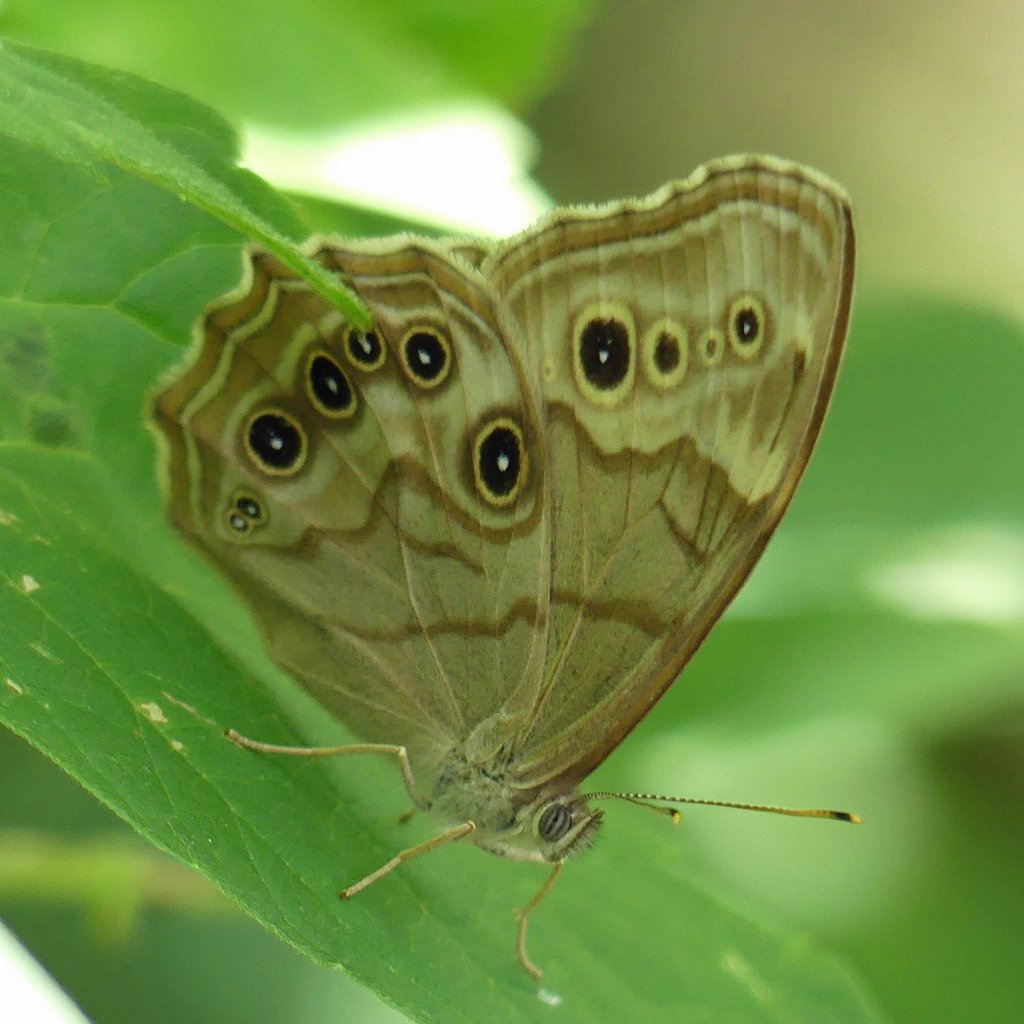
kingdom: Animalia
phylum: Arthropoda
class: Insecta
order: Lepidoptera
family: Nymphalidae
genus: Lethe
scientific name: Lethe anthedon
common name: Northern Pearly-Eye
